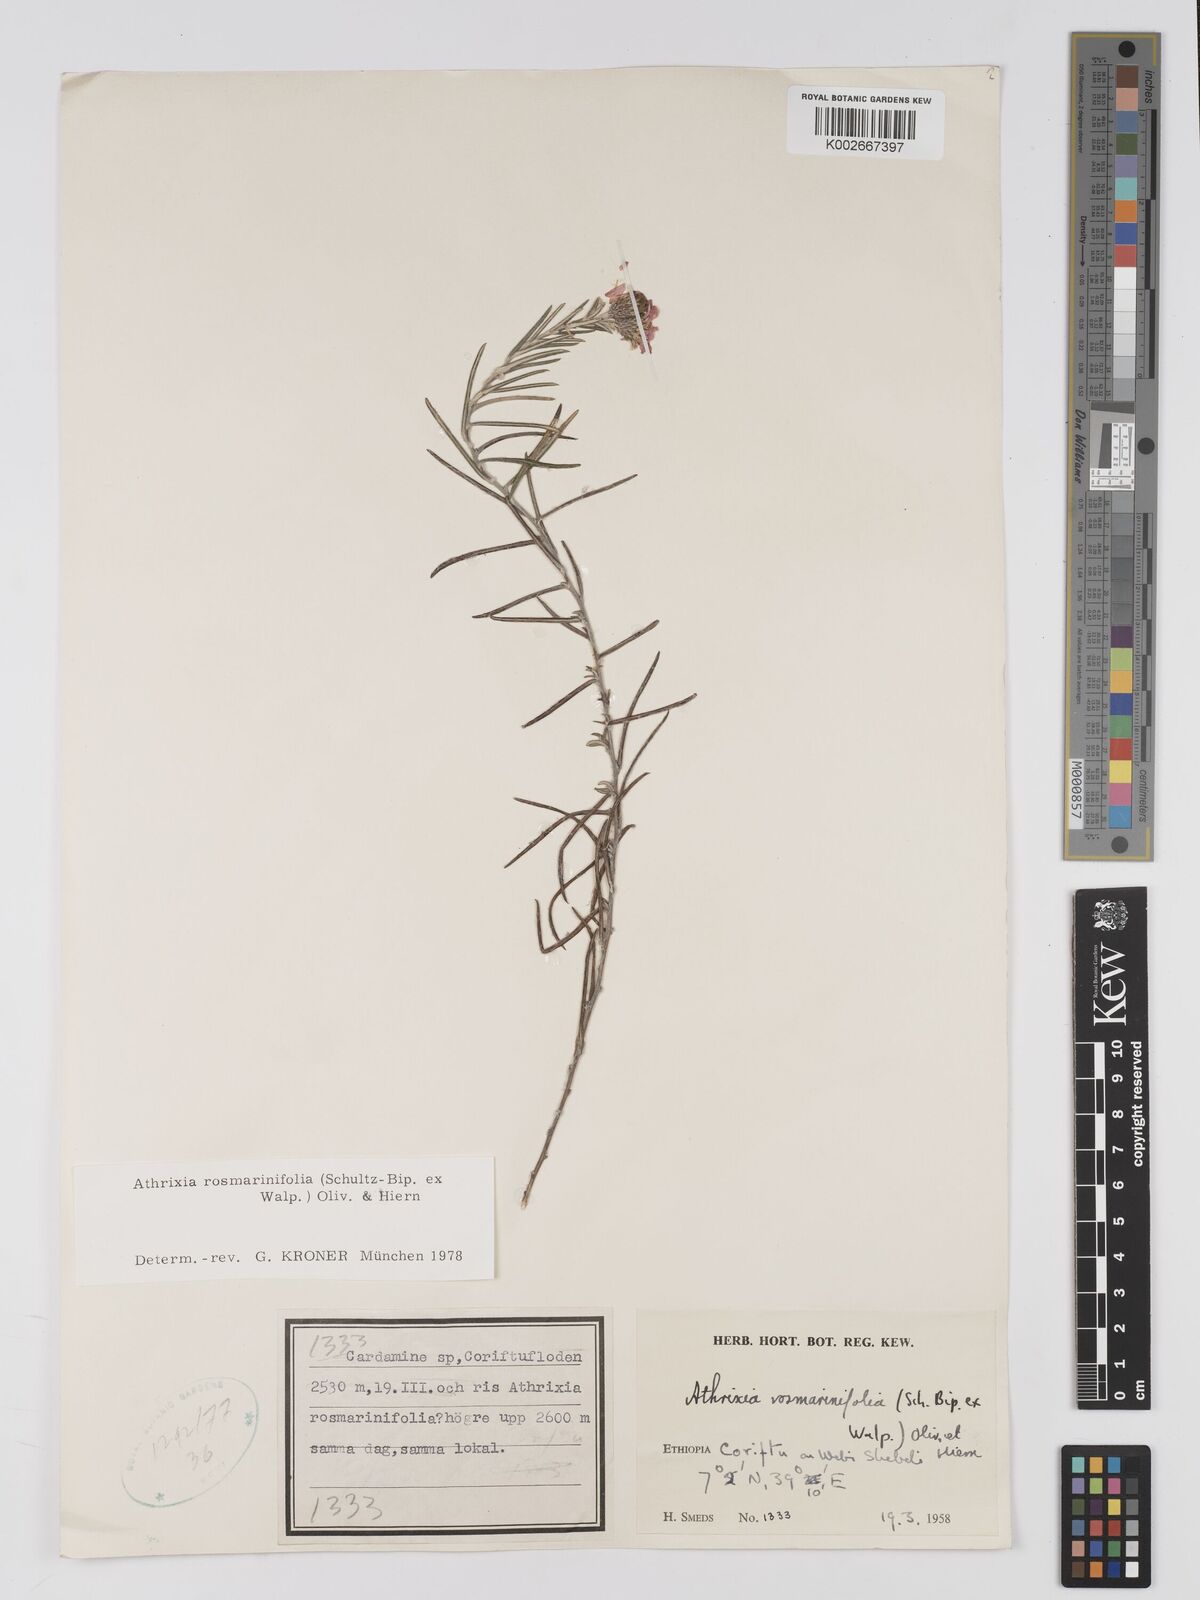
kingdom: Plantae
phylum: Tracheophyta
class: Magnoliopsida
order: Asterales
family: Asteraceae
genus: Athrixia
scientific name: Athrixia rosmarinifolia
